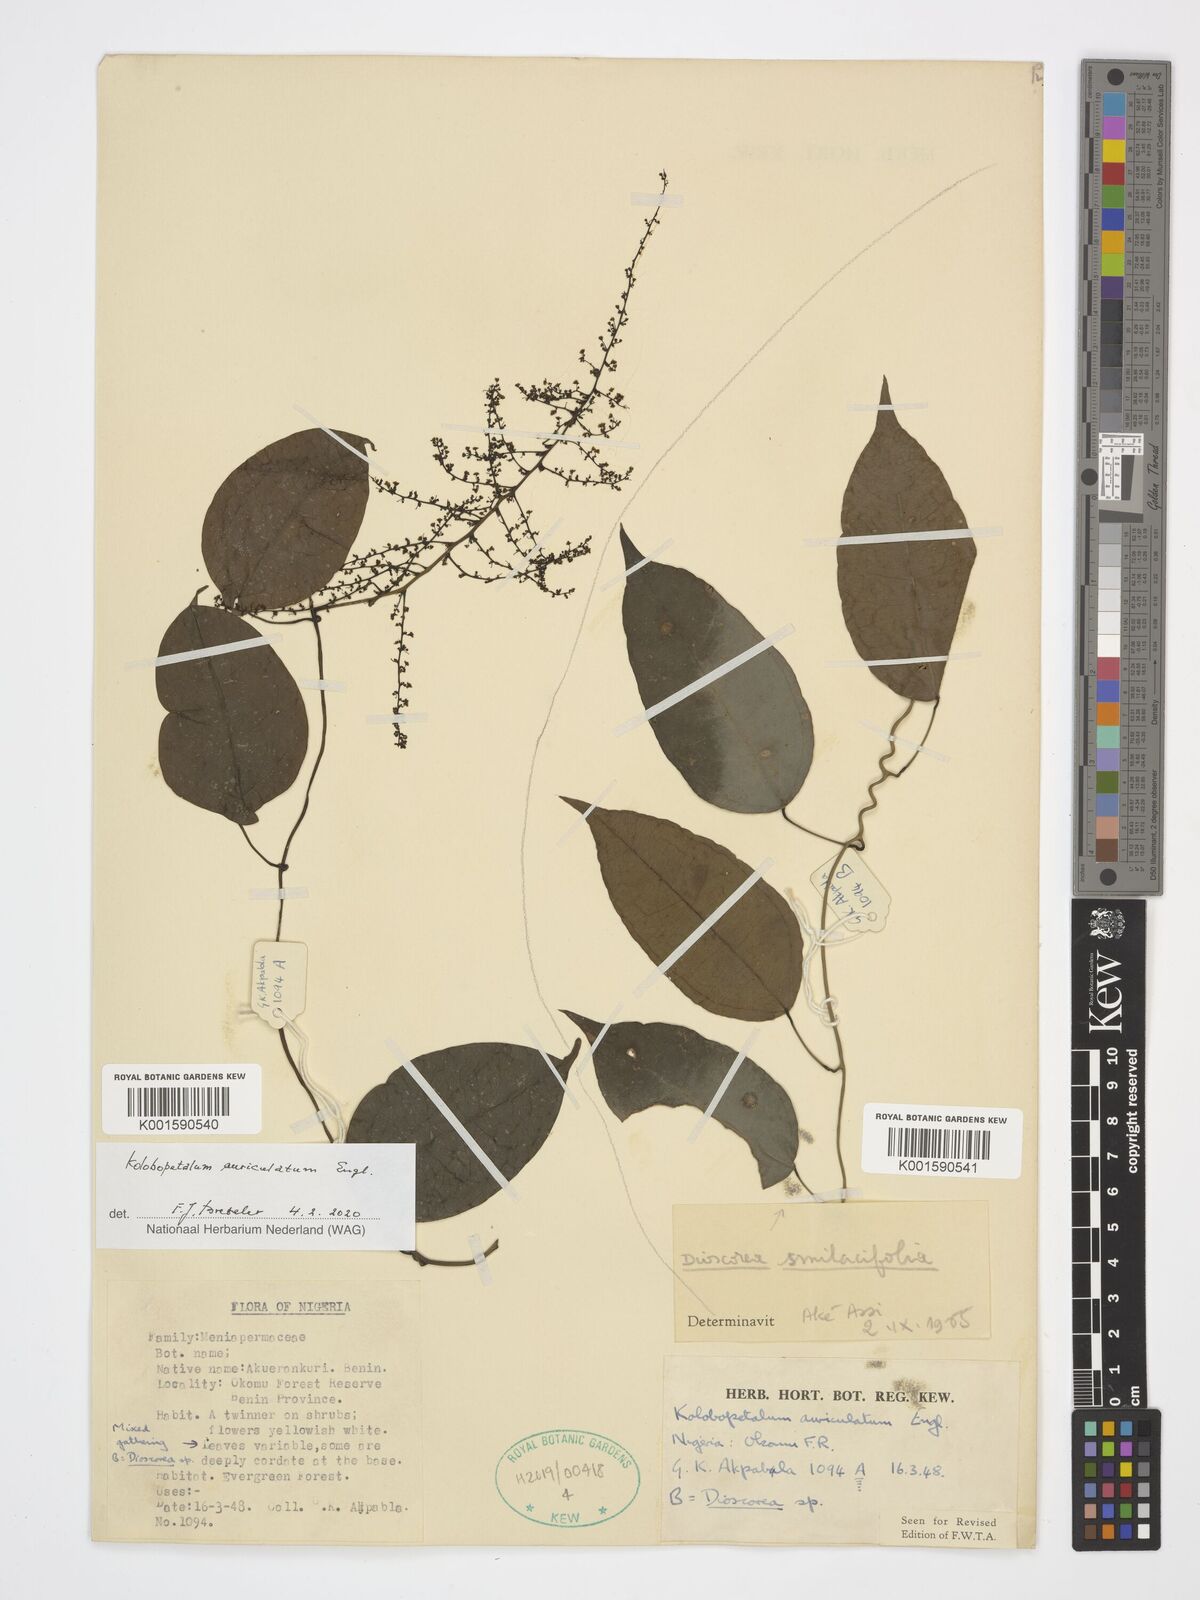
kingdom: Plantae
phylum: Tracheophyta
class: Magnoliopsida
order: Ranunculales
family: Menispermaceae
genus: Kolobopetalum
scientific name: Kolobopetalum auriculatum
